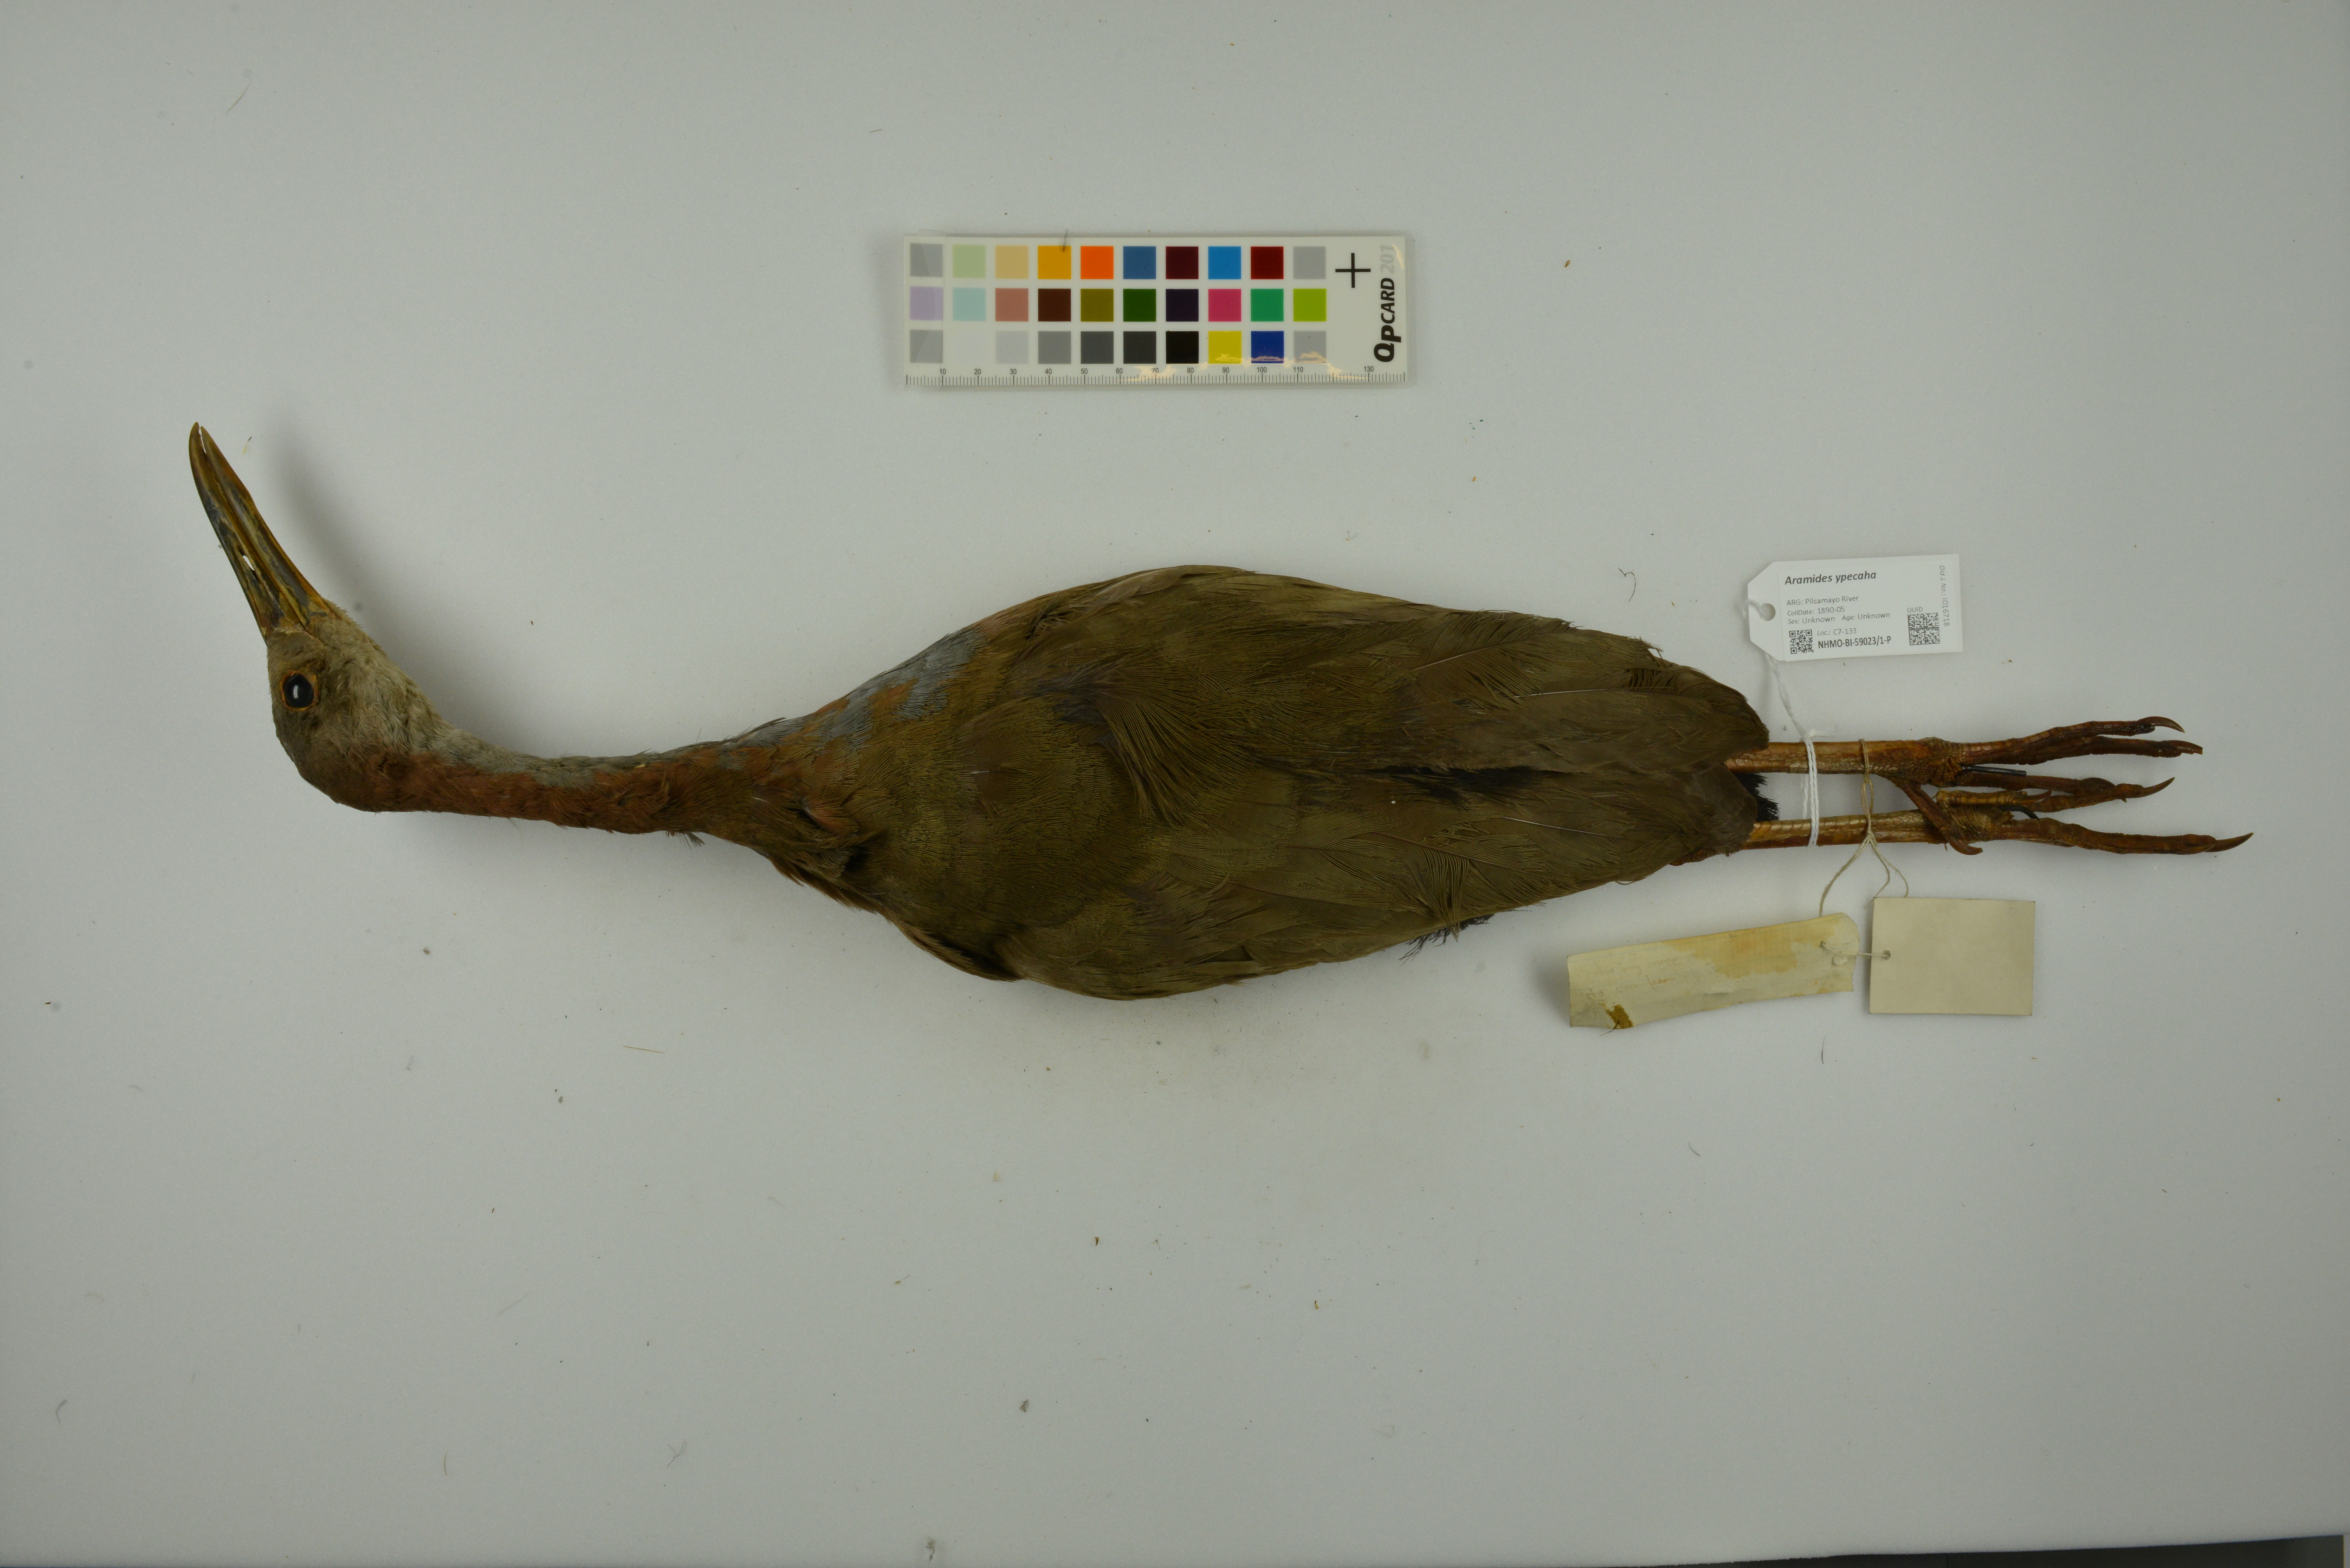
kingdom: Animalia
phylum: Chordata
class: Aves
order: Gruiformes
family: Rallidae
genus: Aramides
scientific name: Aramides ypecaha
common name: Giant wood rail
